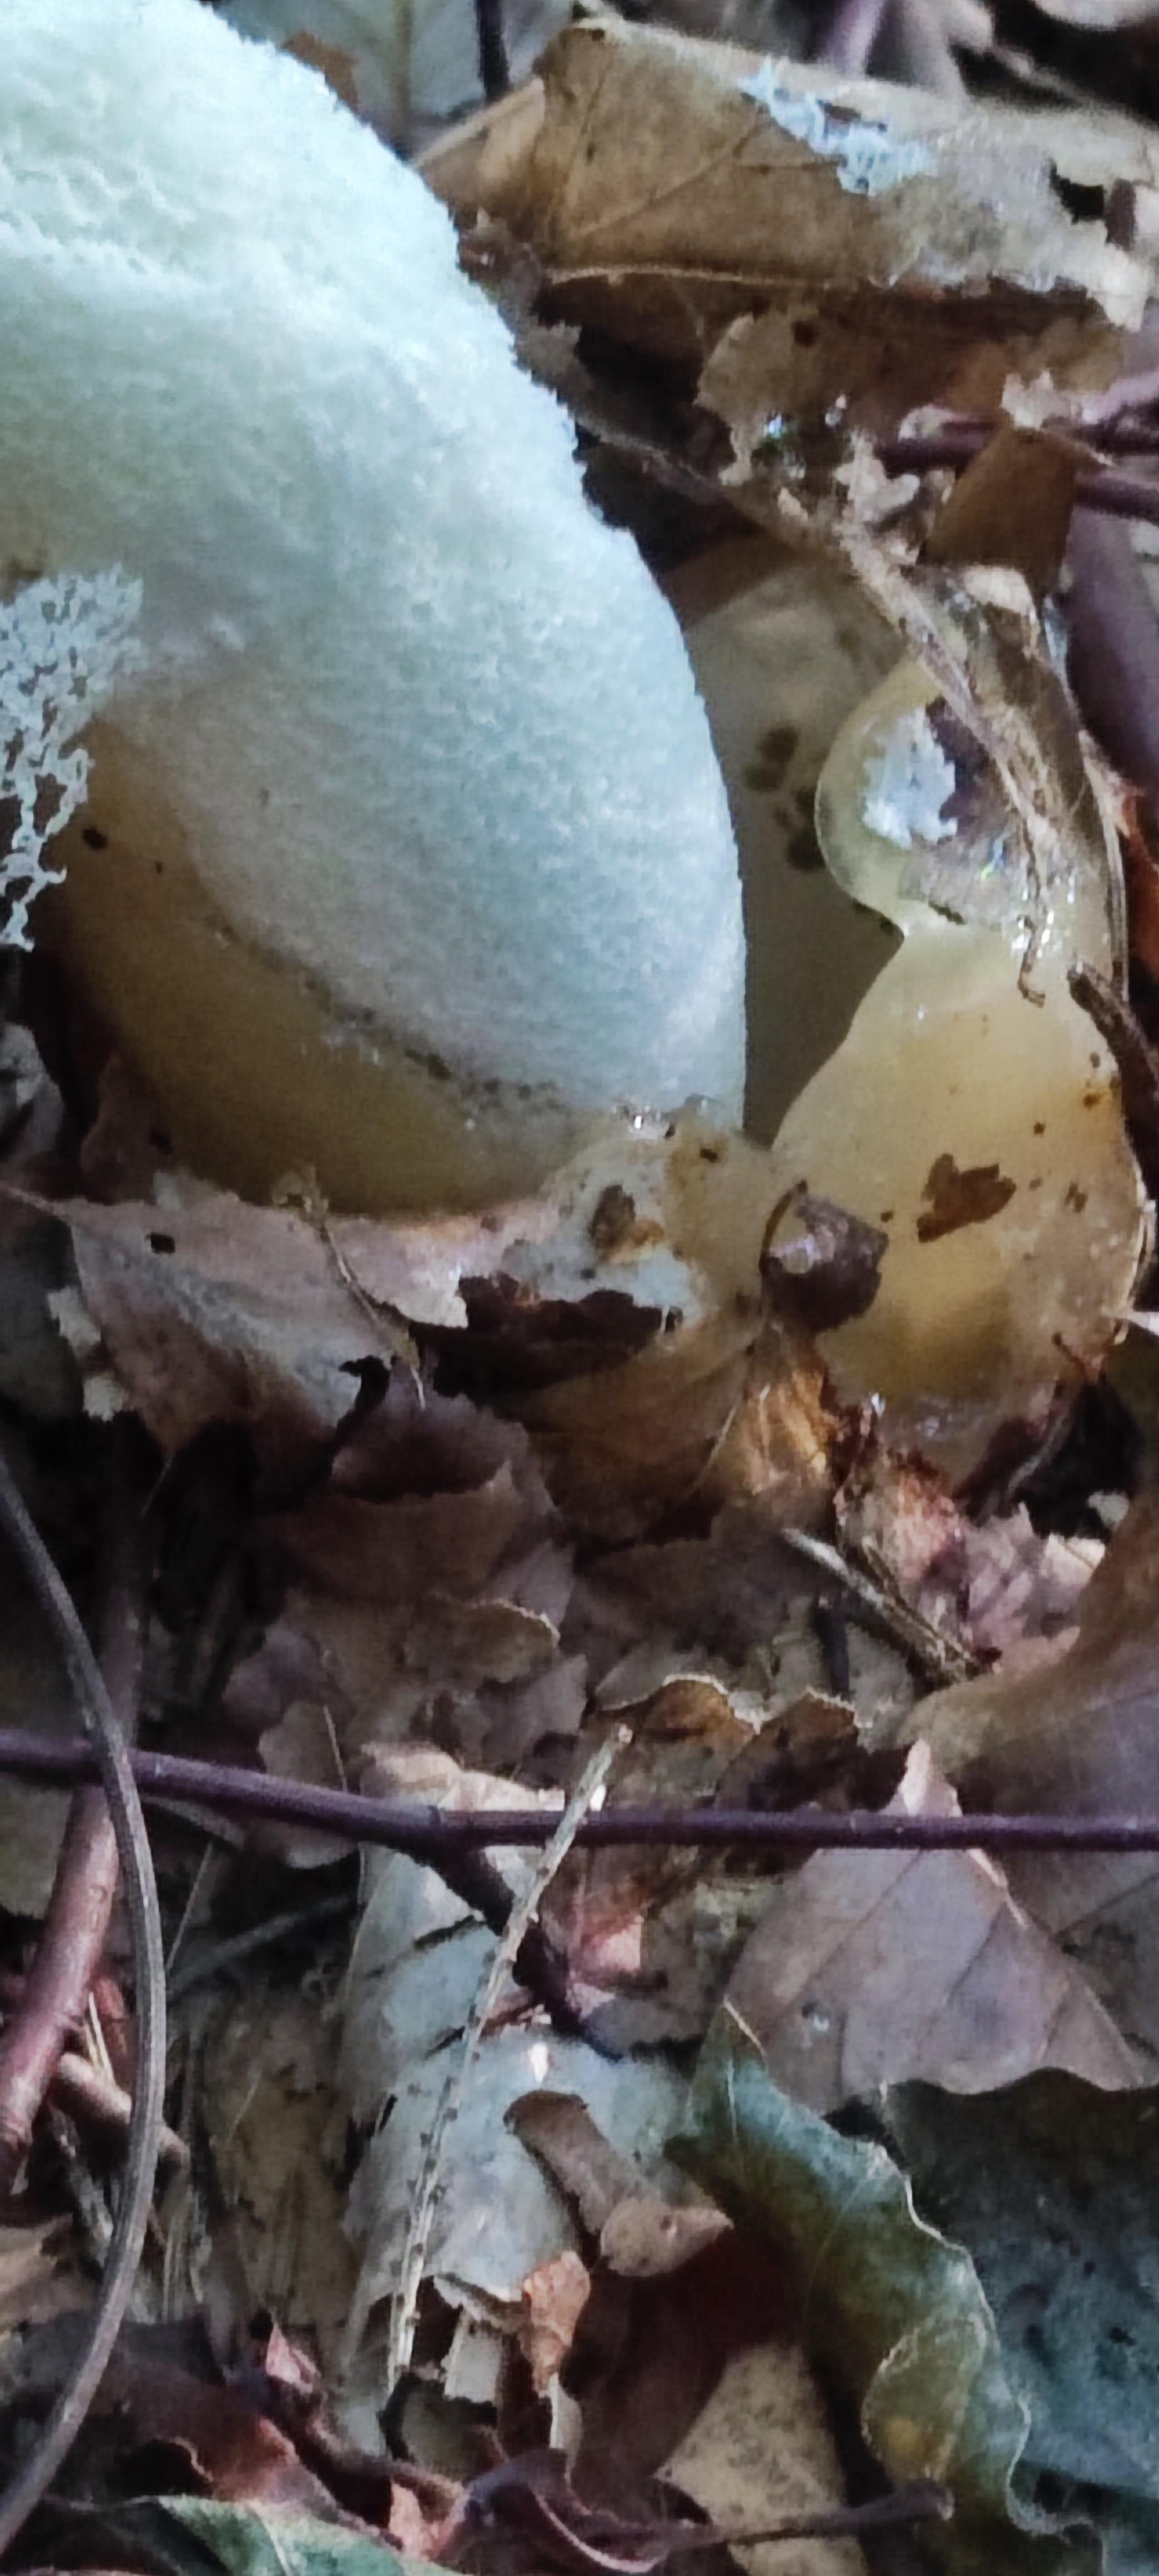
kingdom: Fungi
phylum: Basidiomycota
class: Agaricomycetes
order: Phallales
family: Phallaceae
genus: Phallus
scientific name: Phallus impudicus
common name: almindelig stinksvamp
